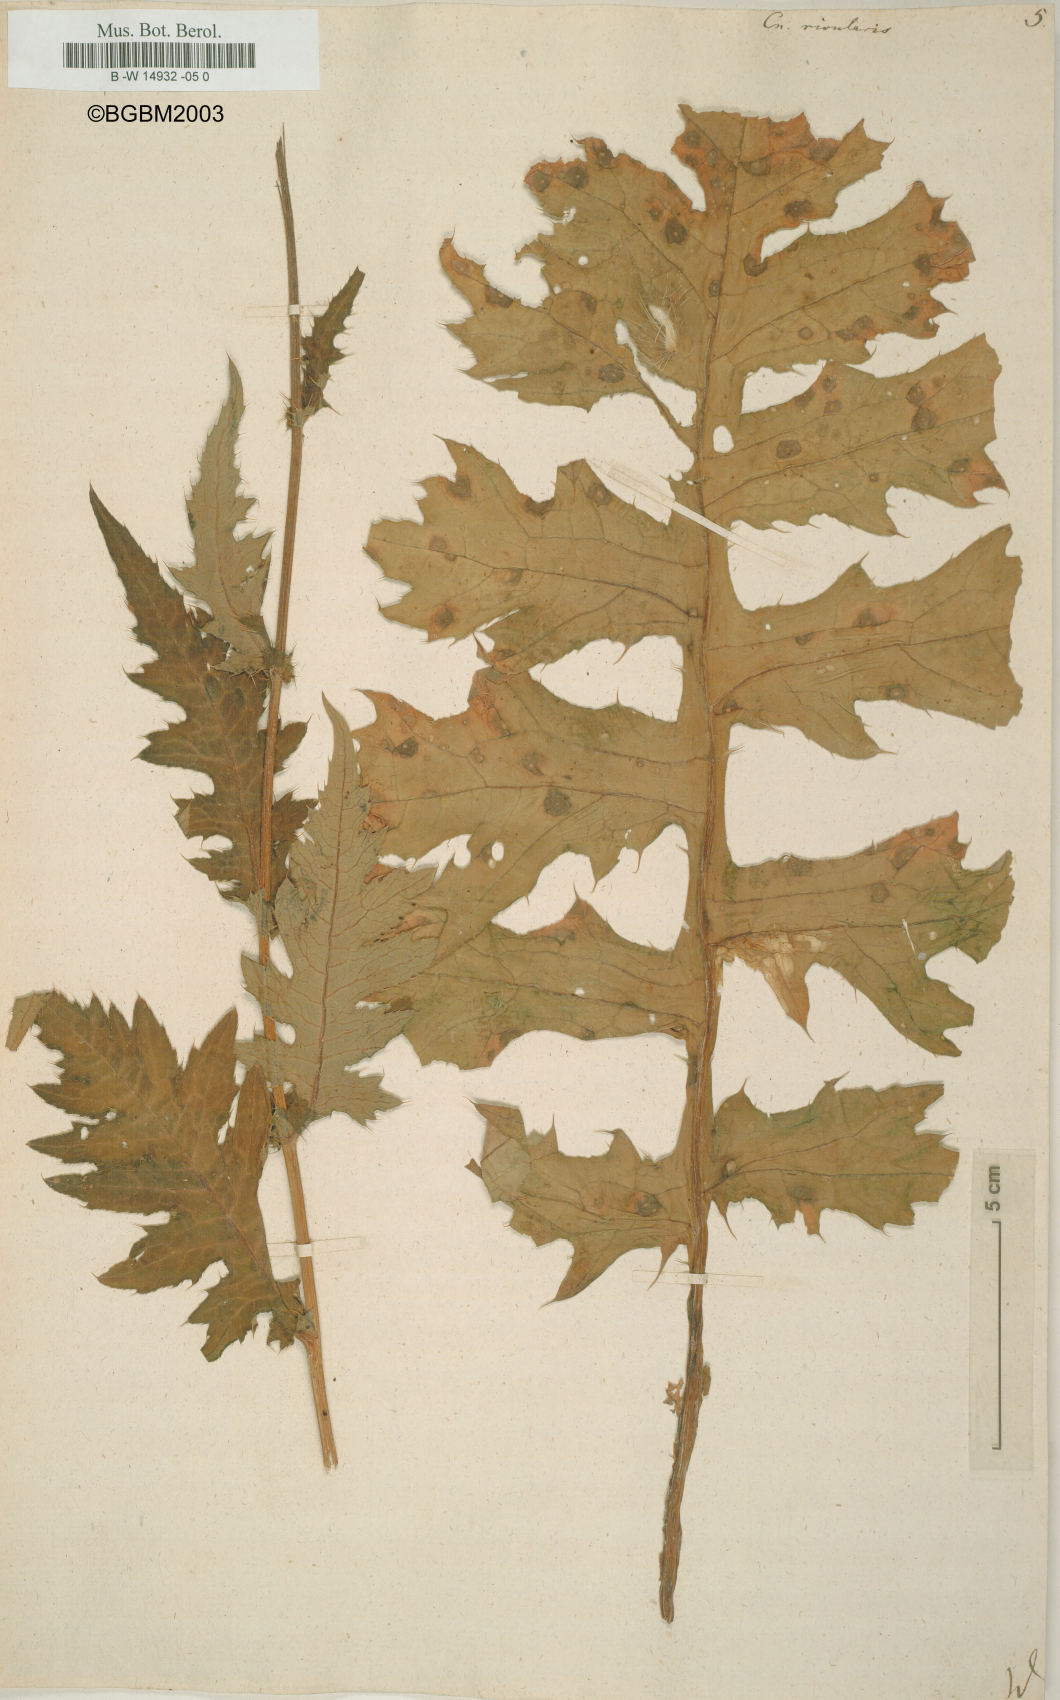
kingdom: Plantae
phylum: Tracheophyta
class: Magnoliopsida
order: Asterales
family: Asteraceae
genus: Cirsium
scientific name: Cirsium
